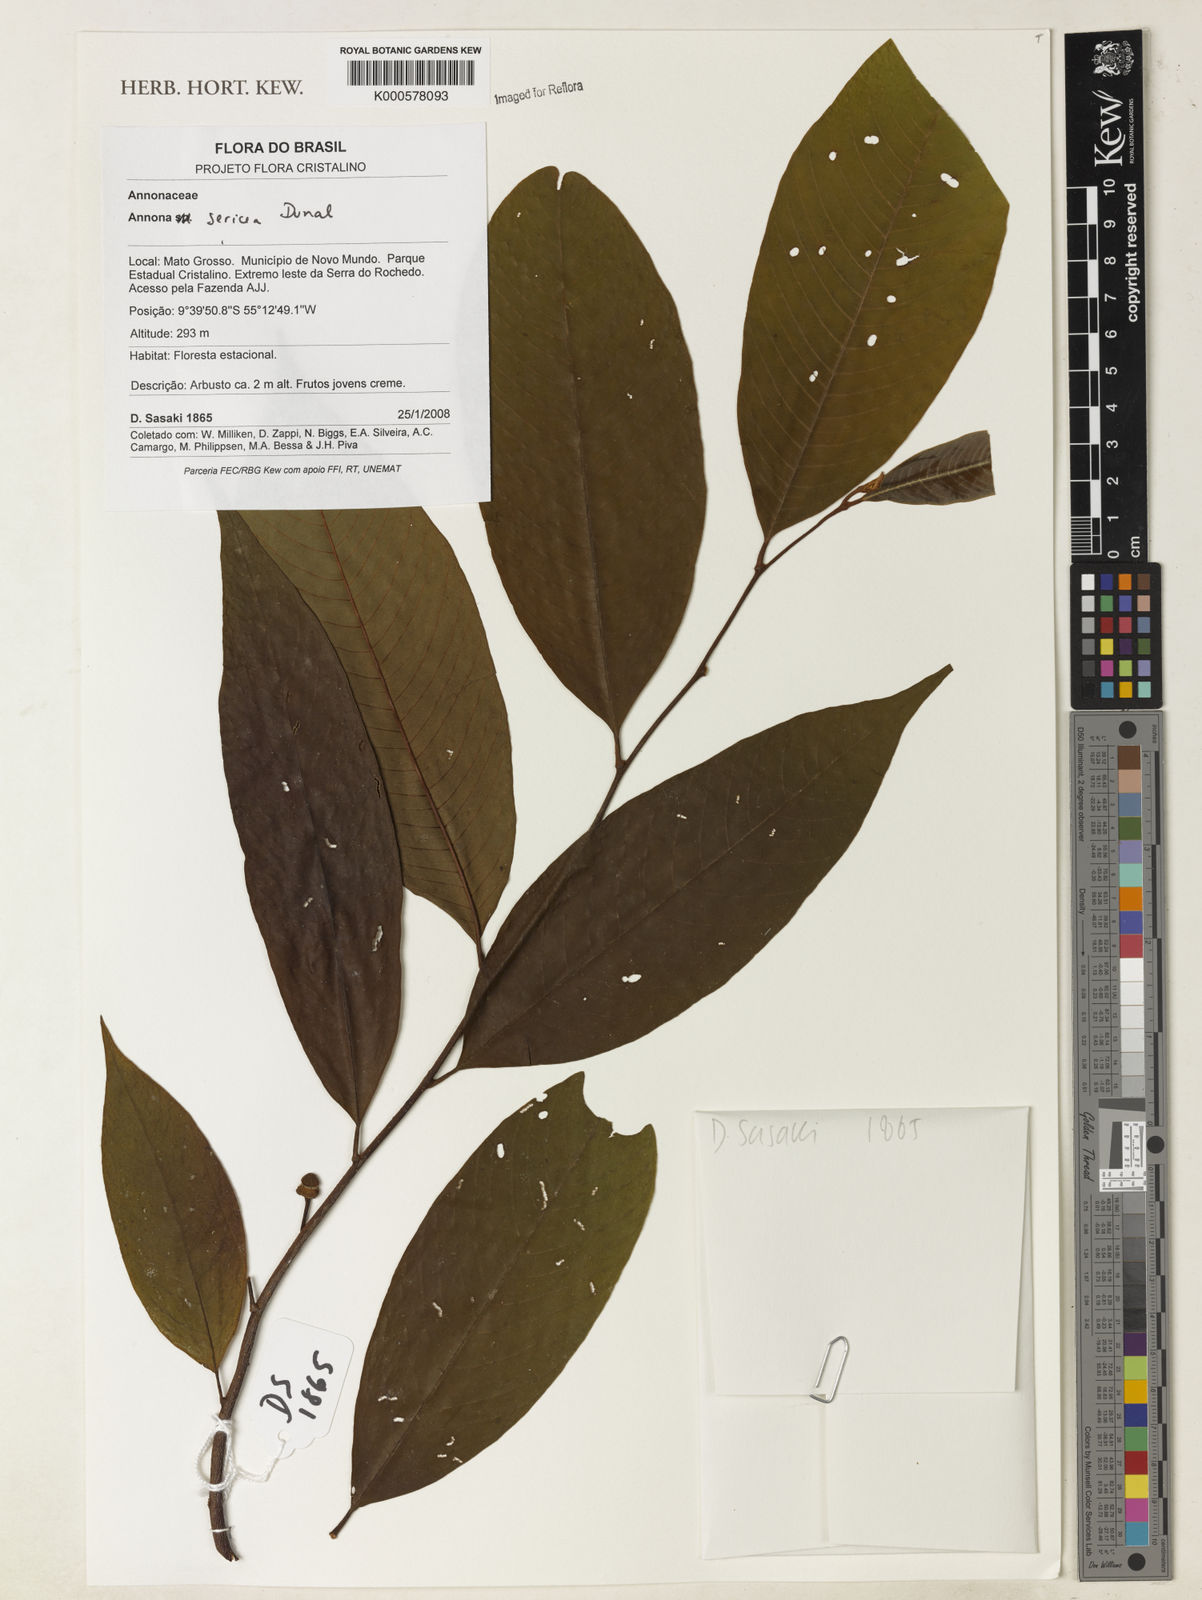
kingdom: Plantae
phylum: Tracheophyta
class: Magnoliopsida
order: Magnoliales
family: Annonaceae
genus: Annona
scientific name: Annona sericea
